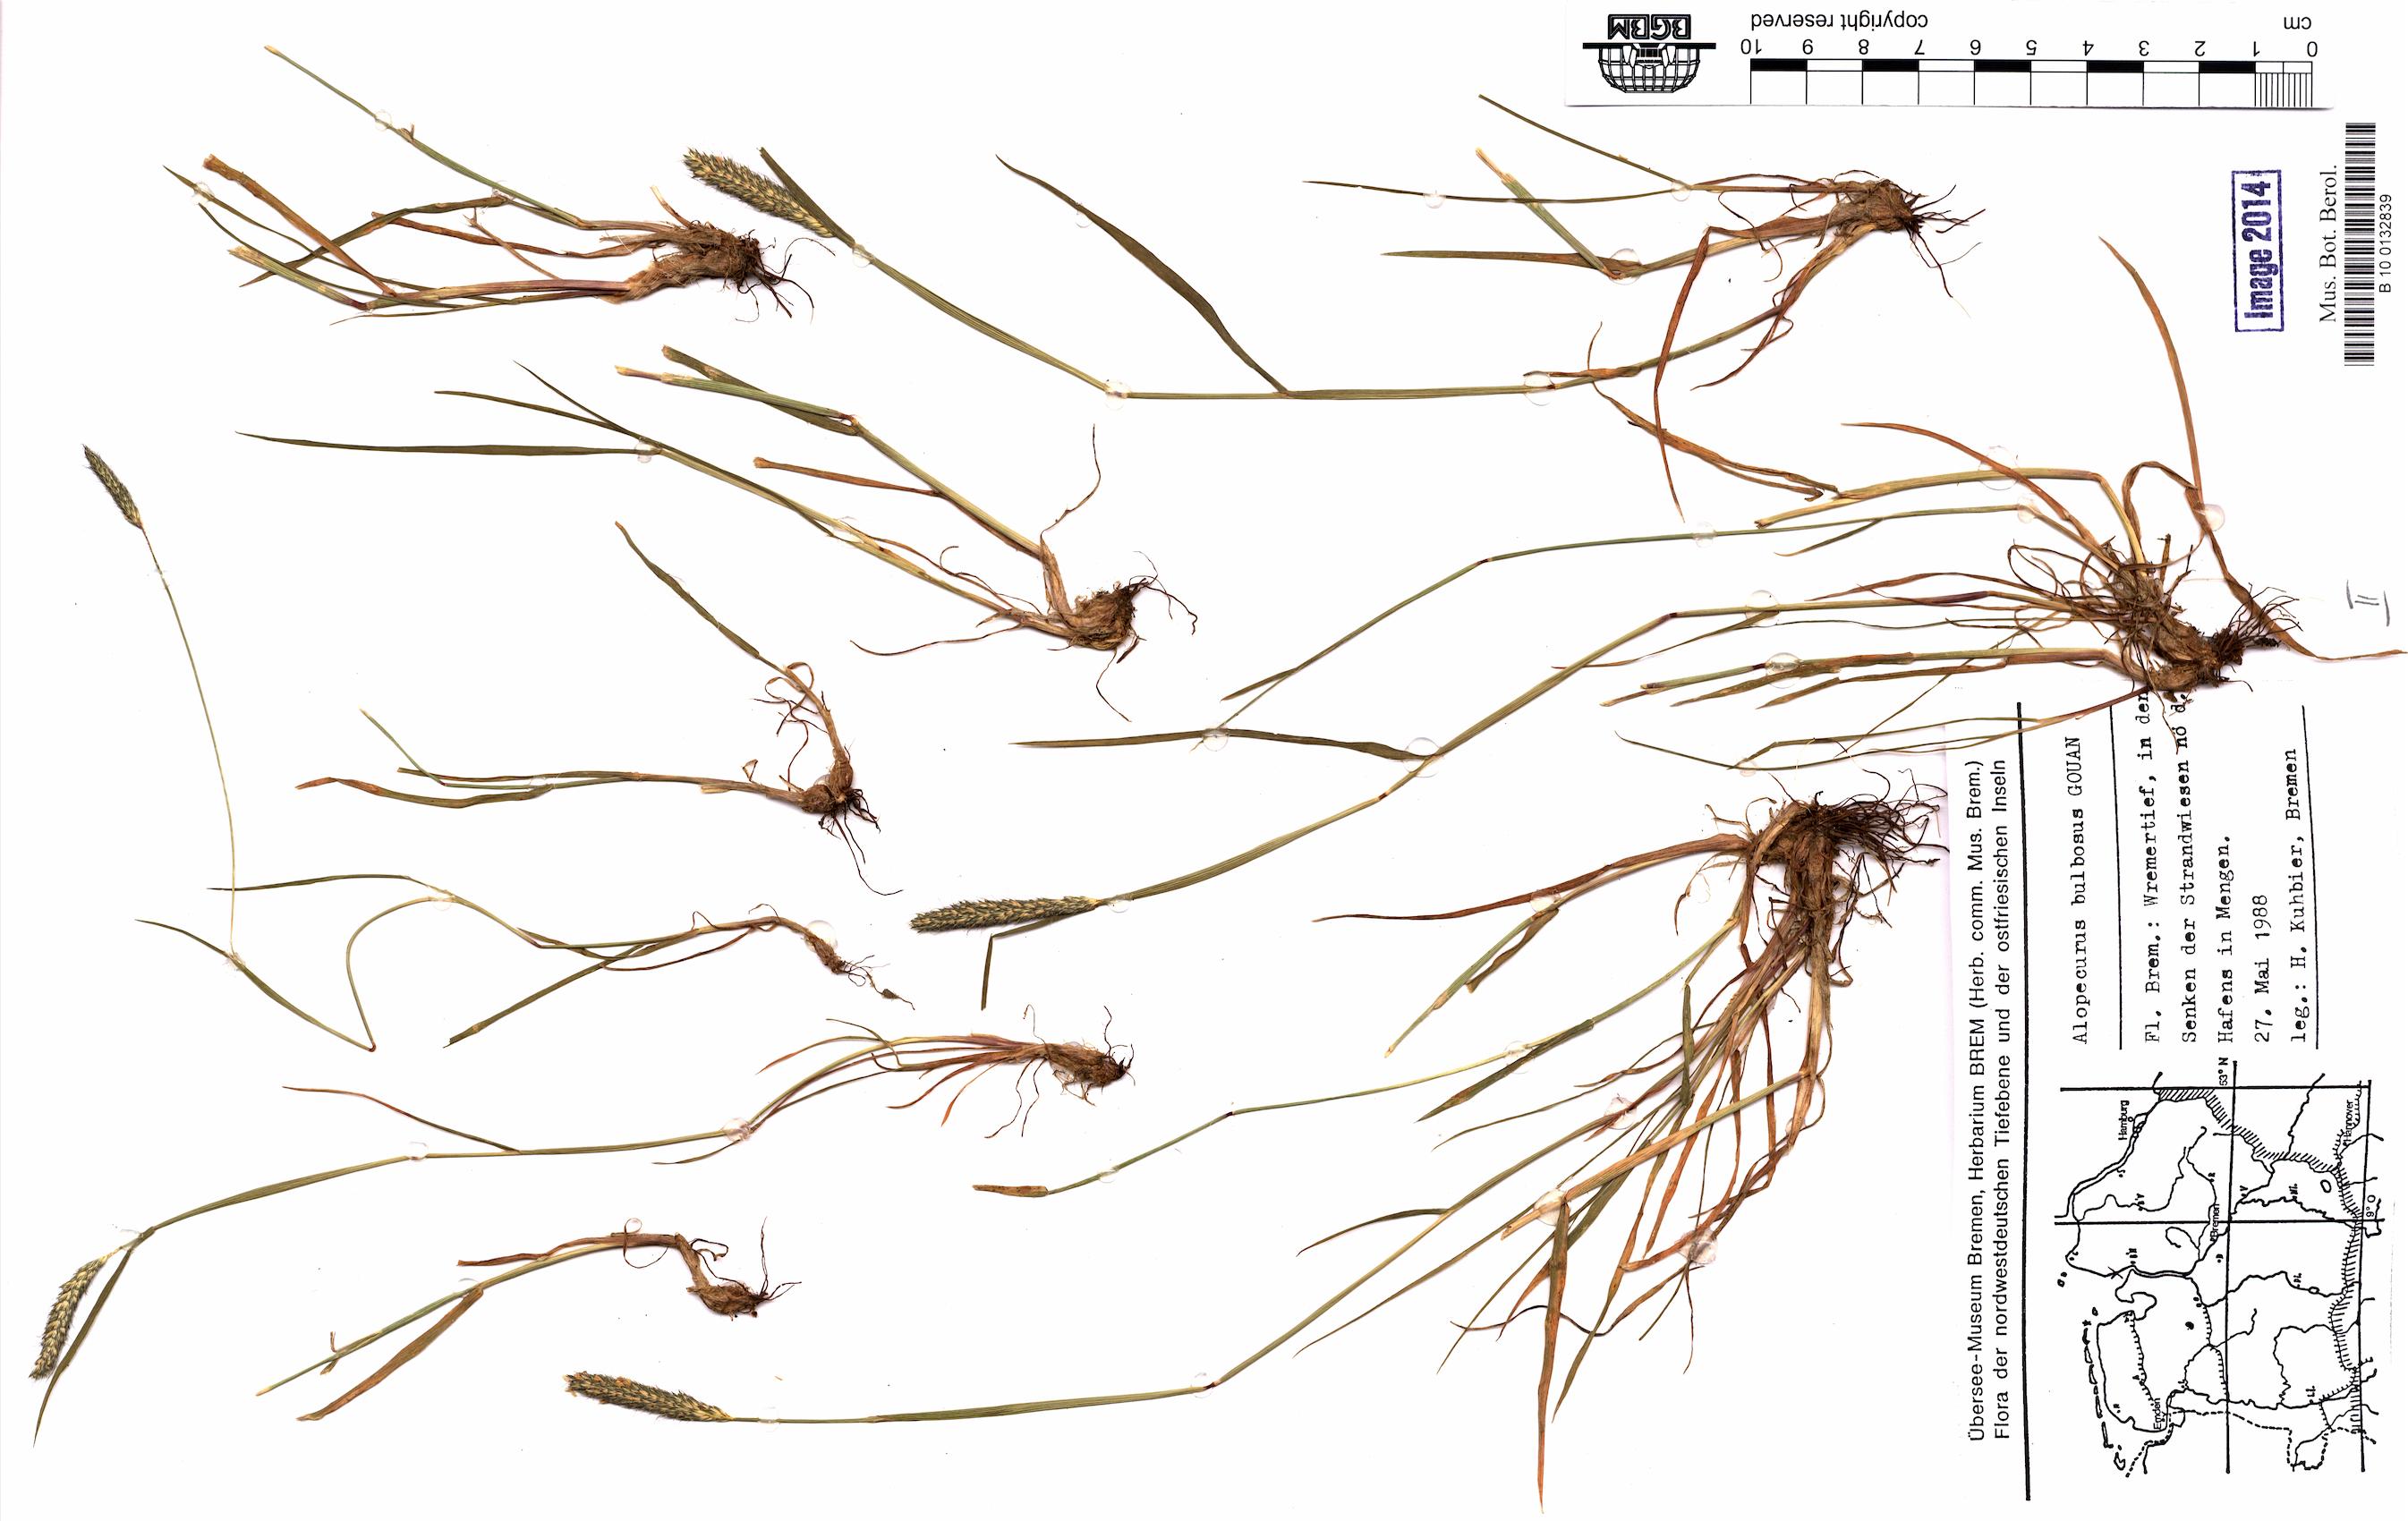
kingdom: Plantae
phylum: Tracheophyta
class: Liliopsida
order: Poales
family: Poaceae
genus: Alopecurus
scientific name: Alopecurus bulbosus
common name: Bulbous foxtail
